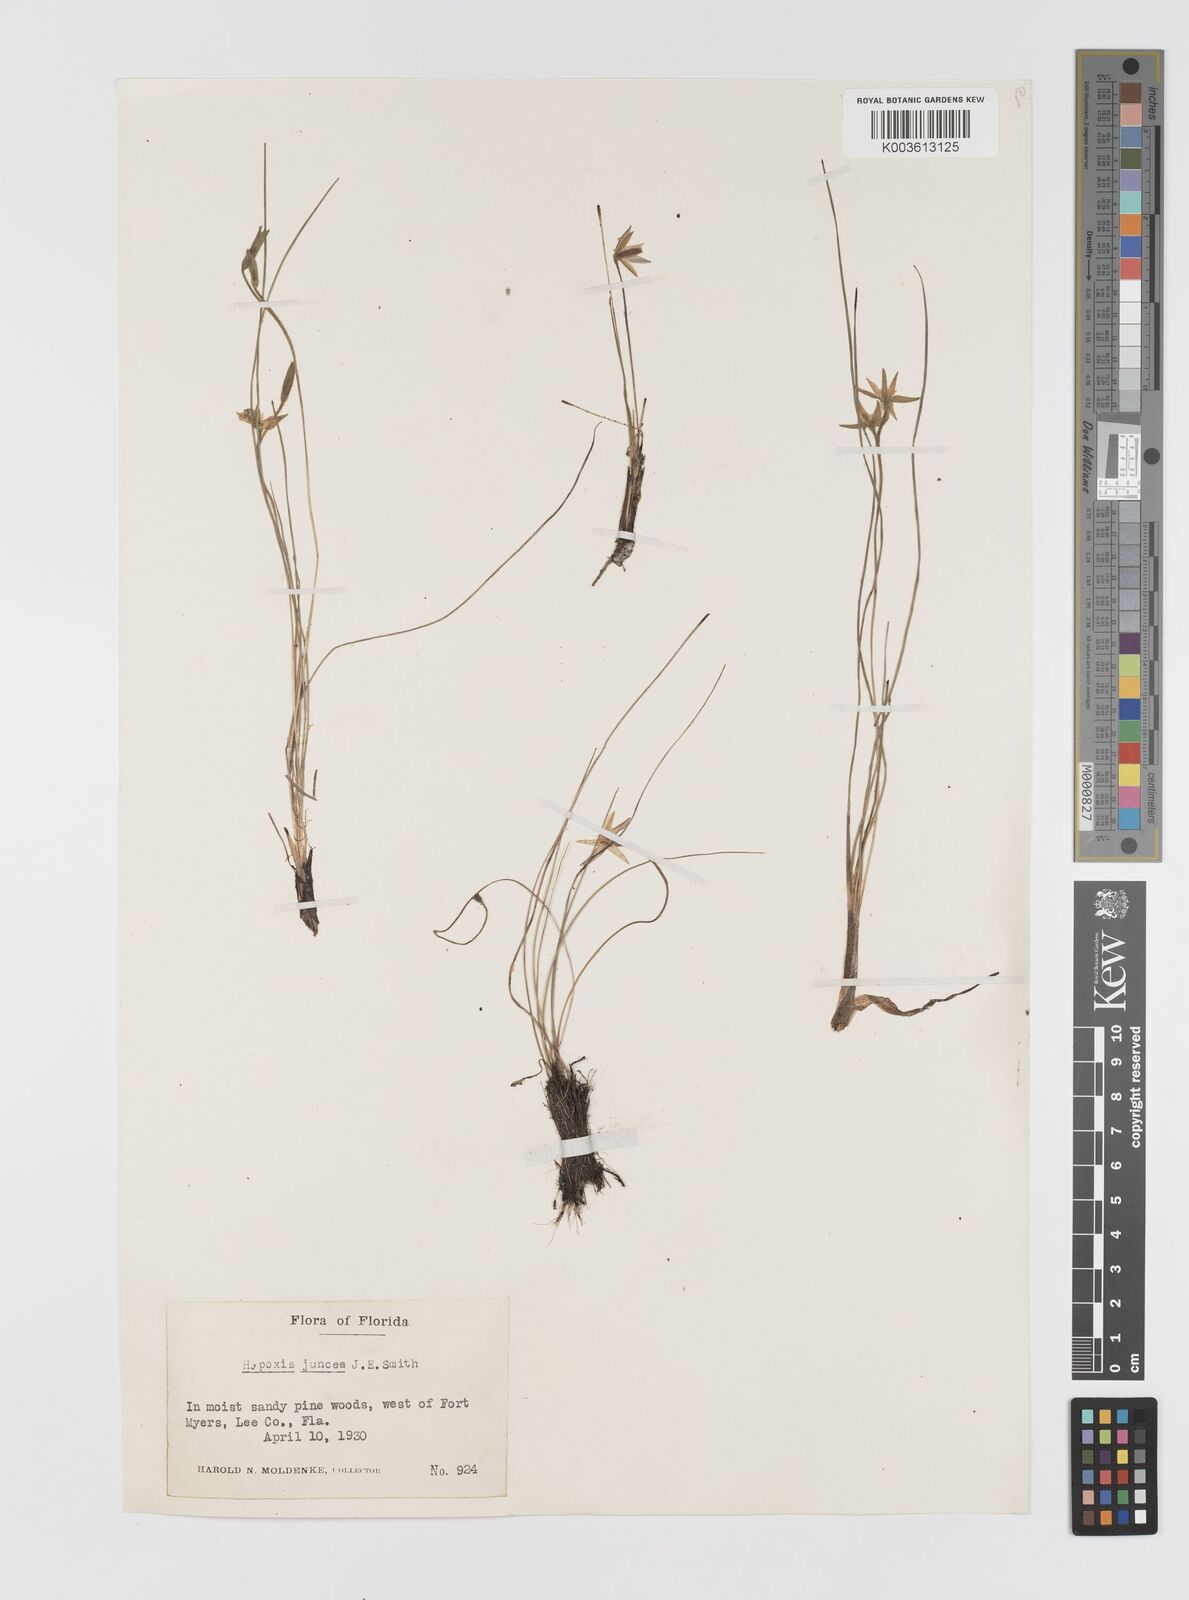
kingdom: Plantae
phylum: Tracheophyta
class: Liliopsida
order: Asparagales
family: Hypoxidaceae
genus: Hypoxis
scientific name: Hypoxis juncea
